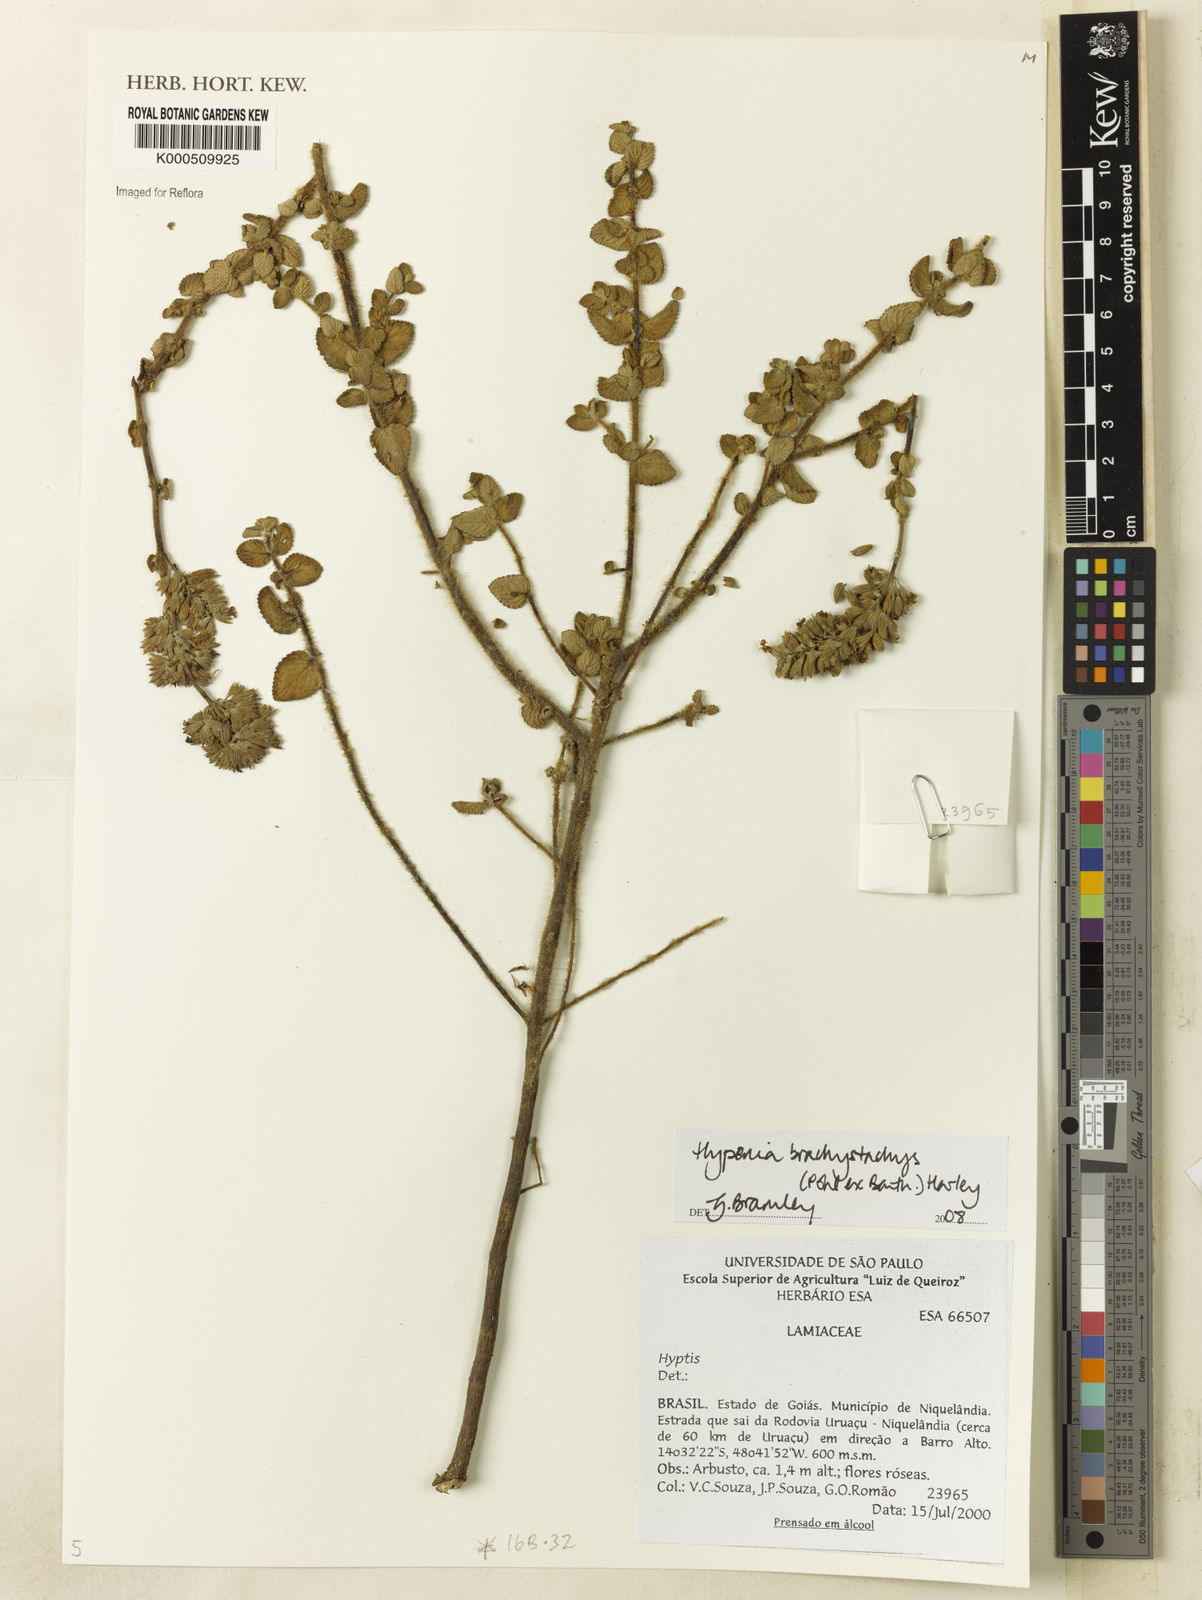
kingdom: Plantae
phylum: Tracheophyta
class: Magnoliopsida
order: Lamiales
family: Lamiaceae
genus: Hypenia
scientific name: Hypenia brachystachys
